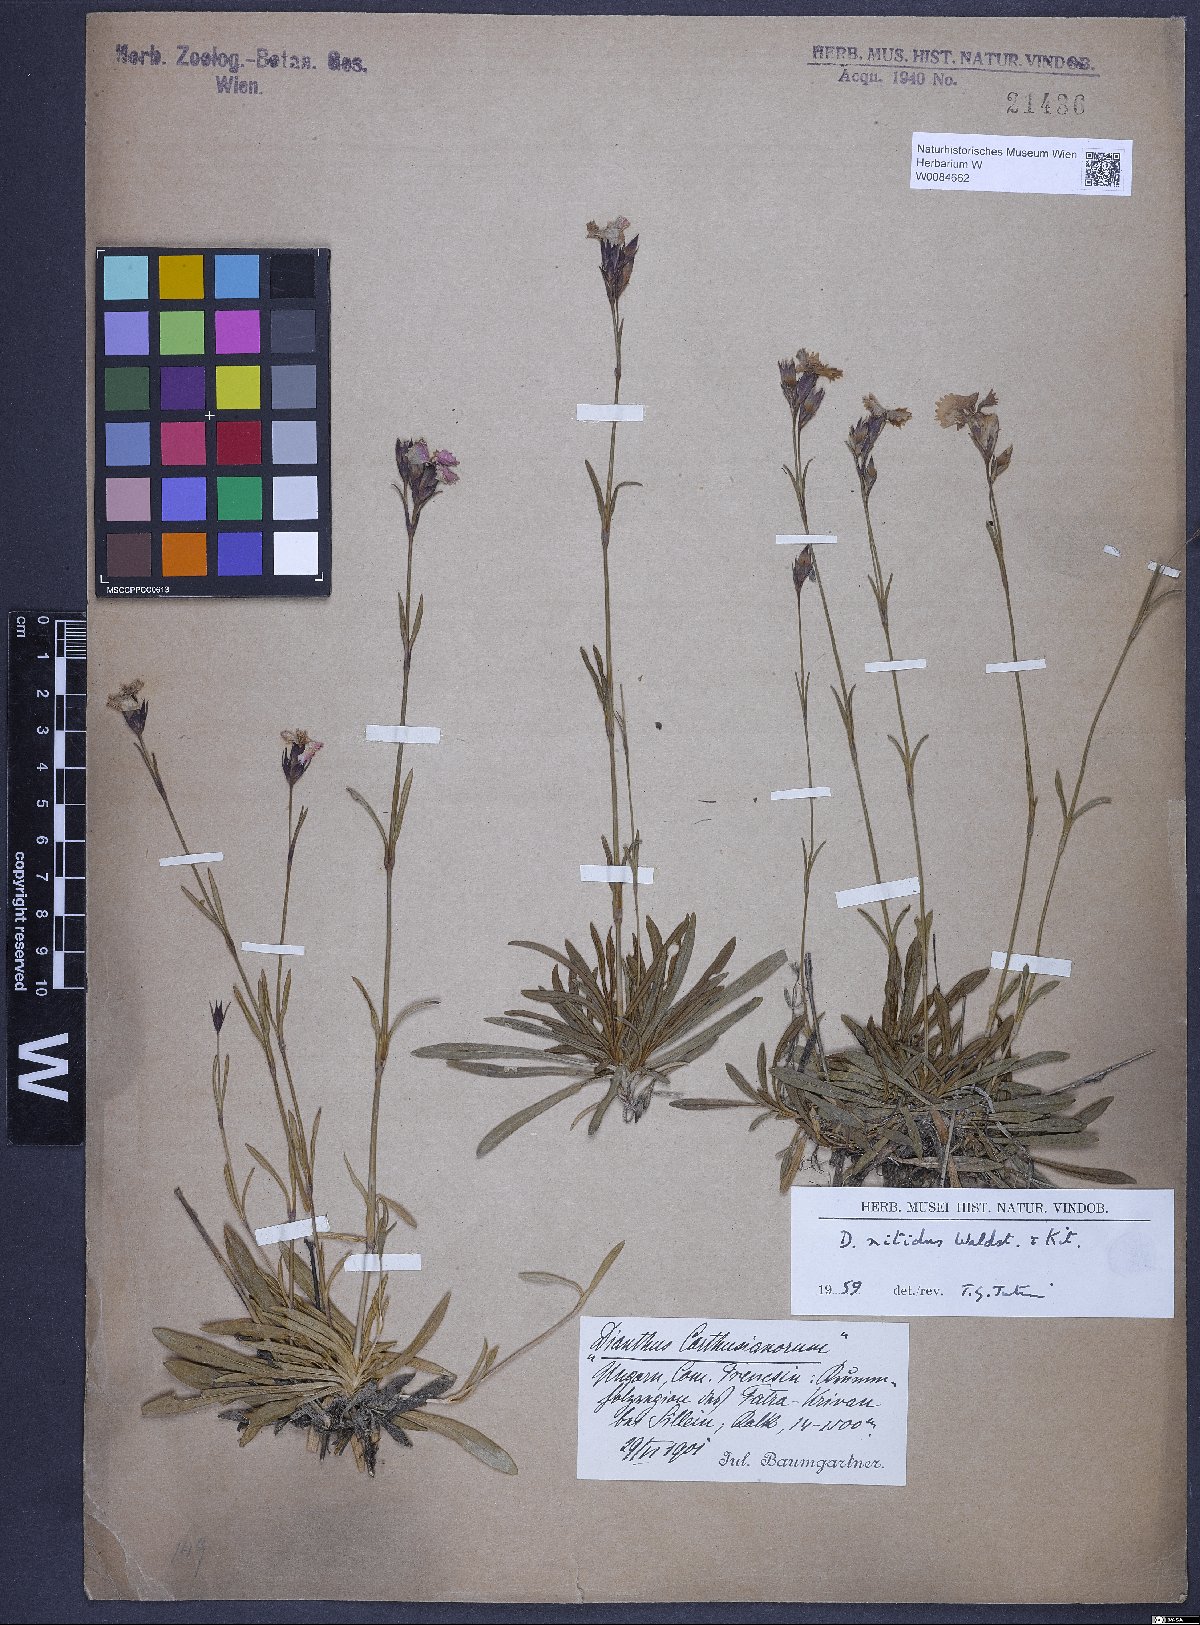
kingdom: Plantae
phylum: Tracheophyta
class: Magnoliopsida
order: Caryophyllales
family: Caryophyllaceae
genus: Dianthus
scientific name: Dianthus nitidus
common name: Carpathian glossy pink
